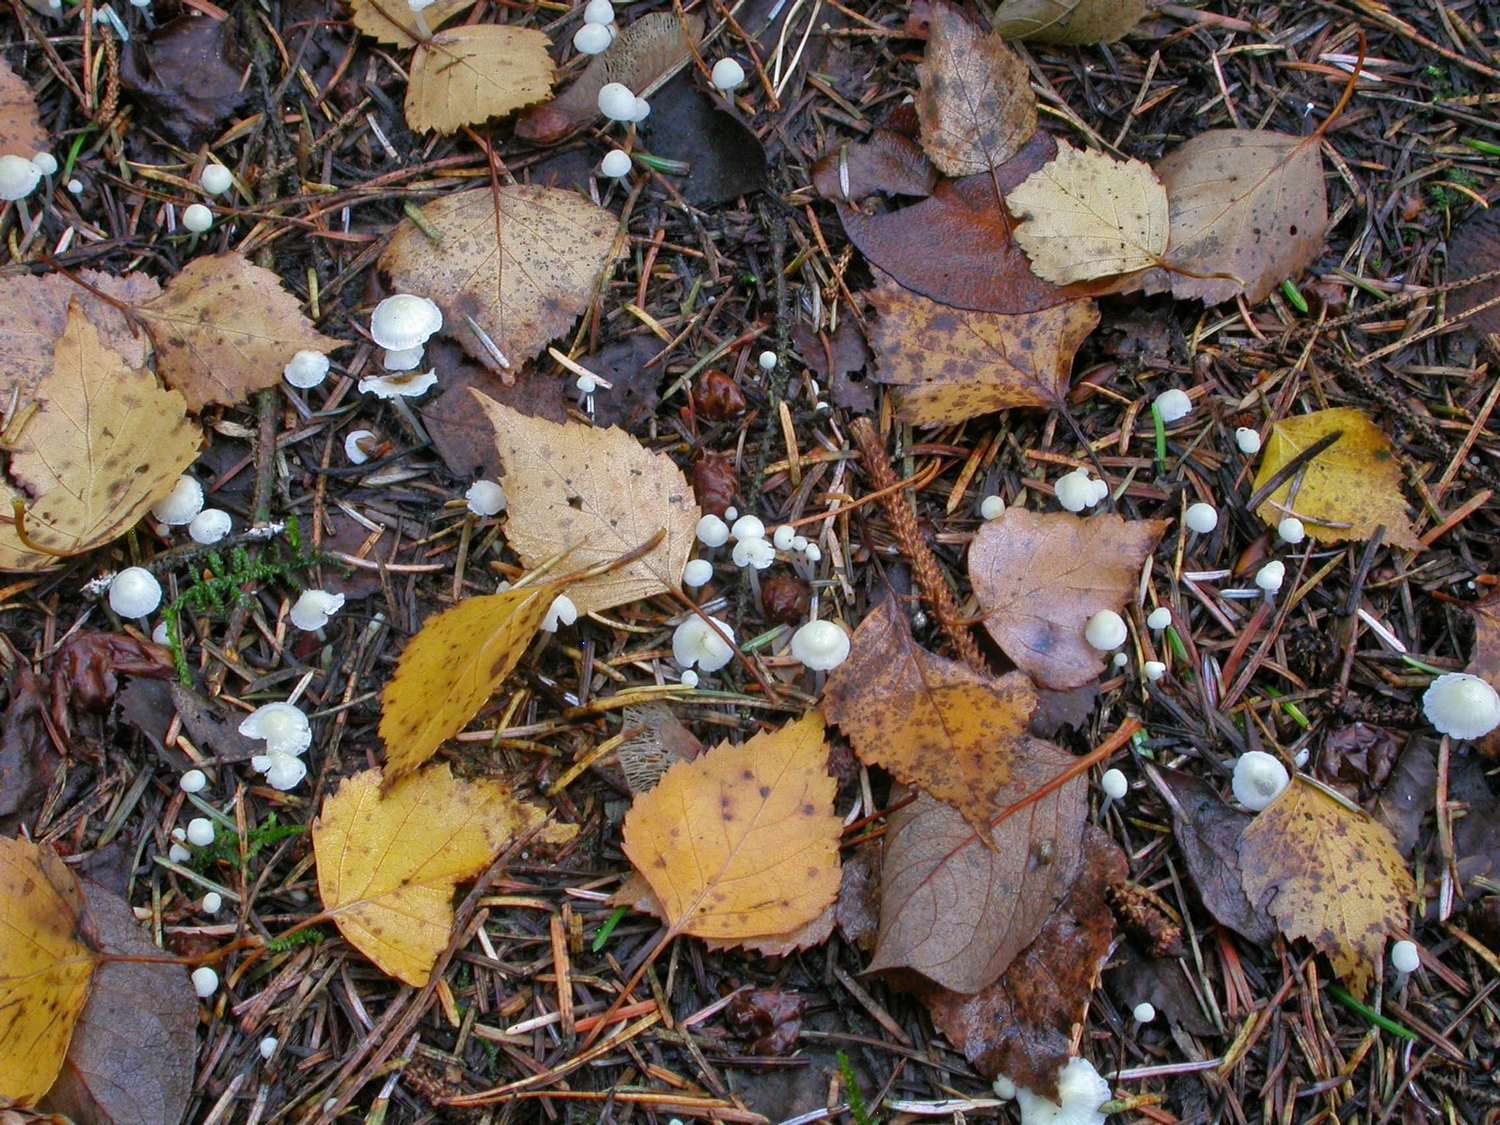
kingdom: Fungi
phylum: Basidiomycota
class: Agaricomycetes
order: Agaricales
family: Mycenaceae
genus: Atheniella
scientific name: Atheniella flavoalba
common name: gulhvid huesvamp
